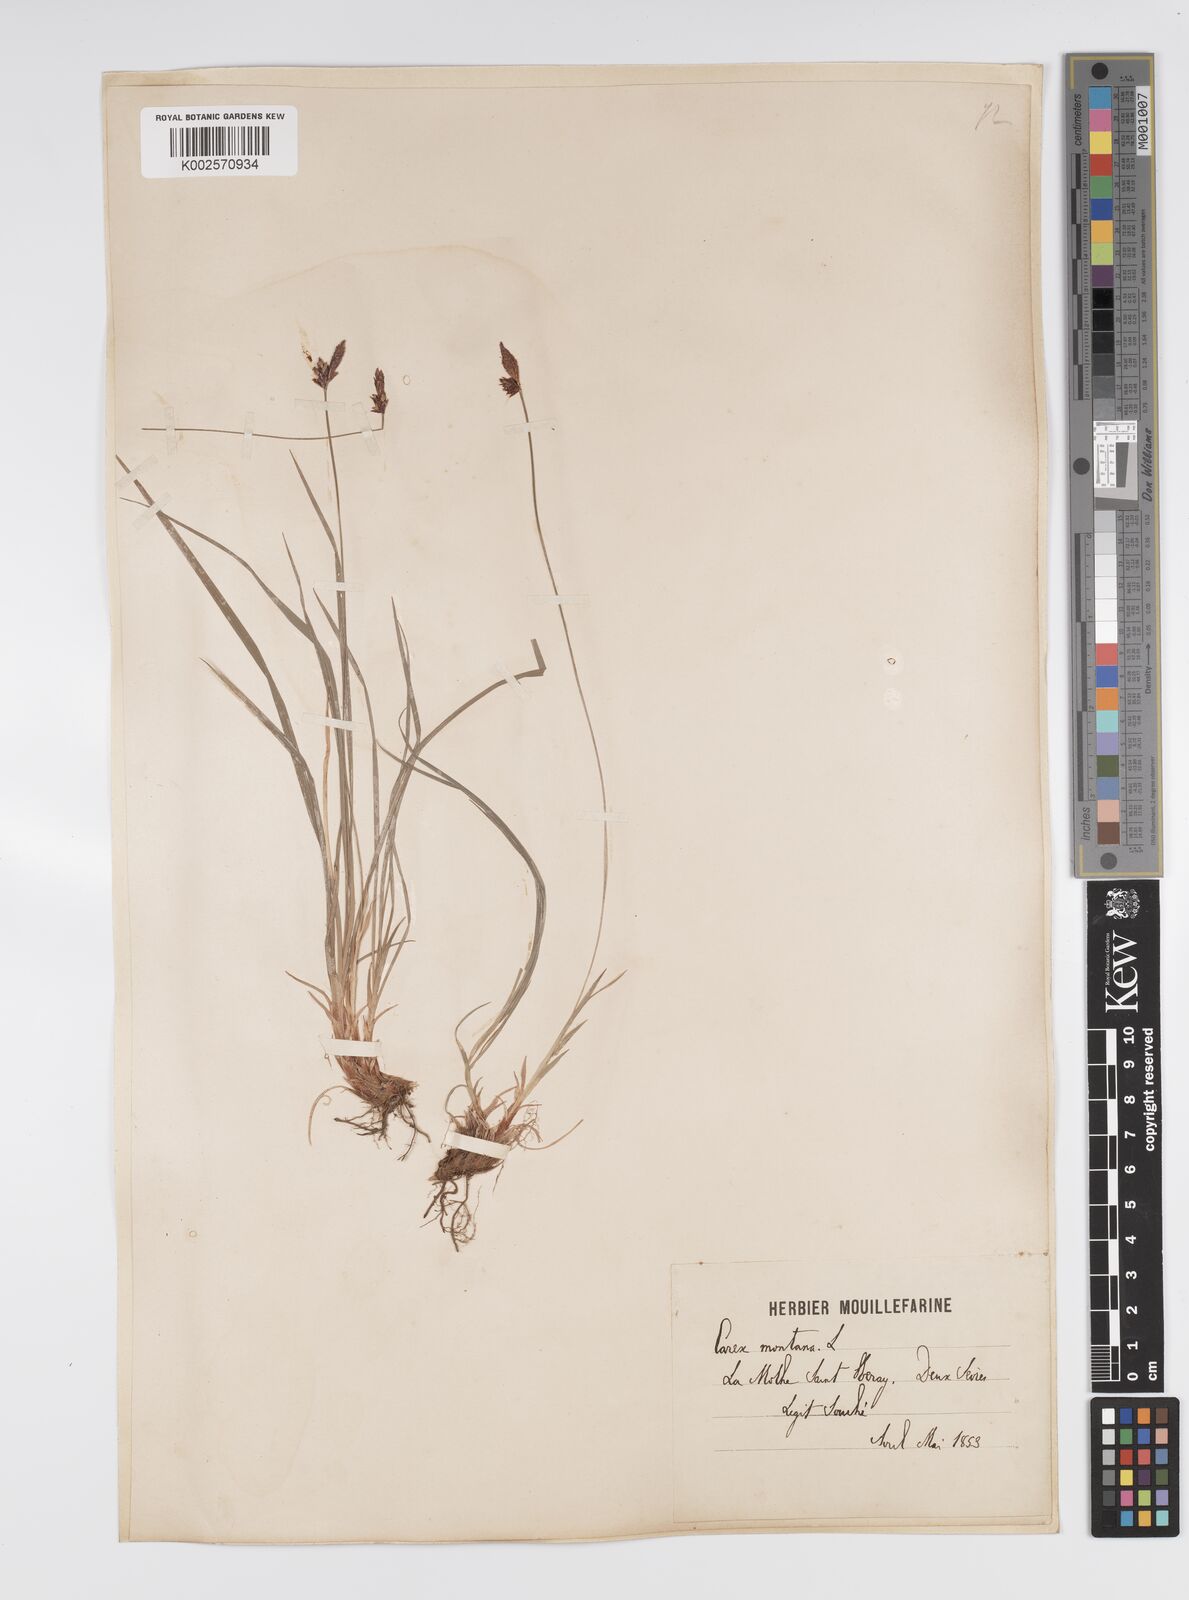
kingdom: Plantae
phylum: Tracheophyta
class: Liliopsida
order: Poales
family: Cyperaceae
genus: Carex
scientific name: Carex montana
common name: Soft-leaved sedge
